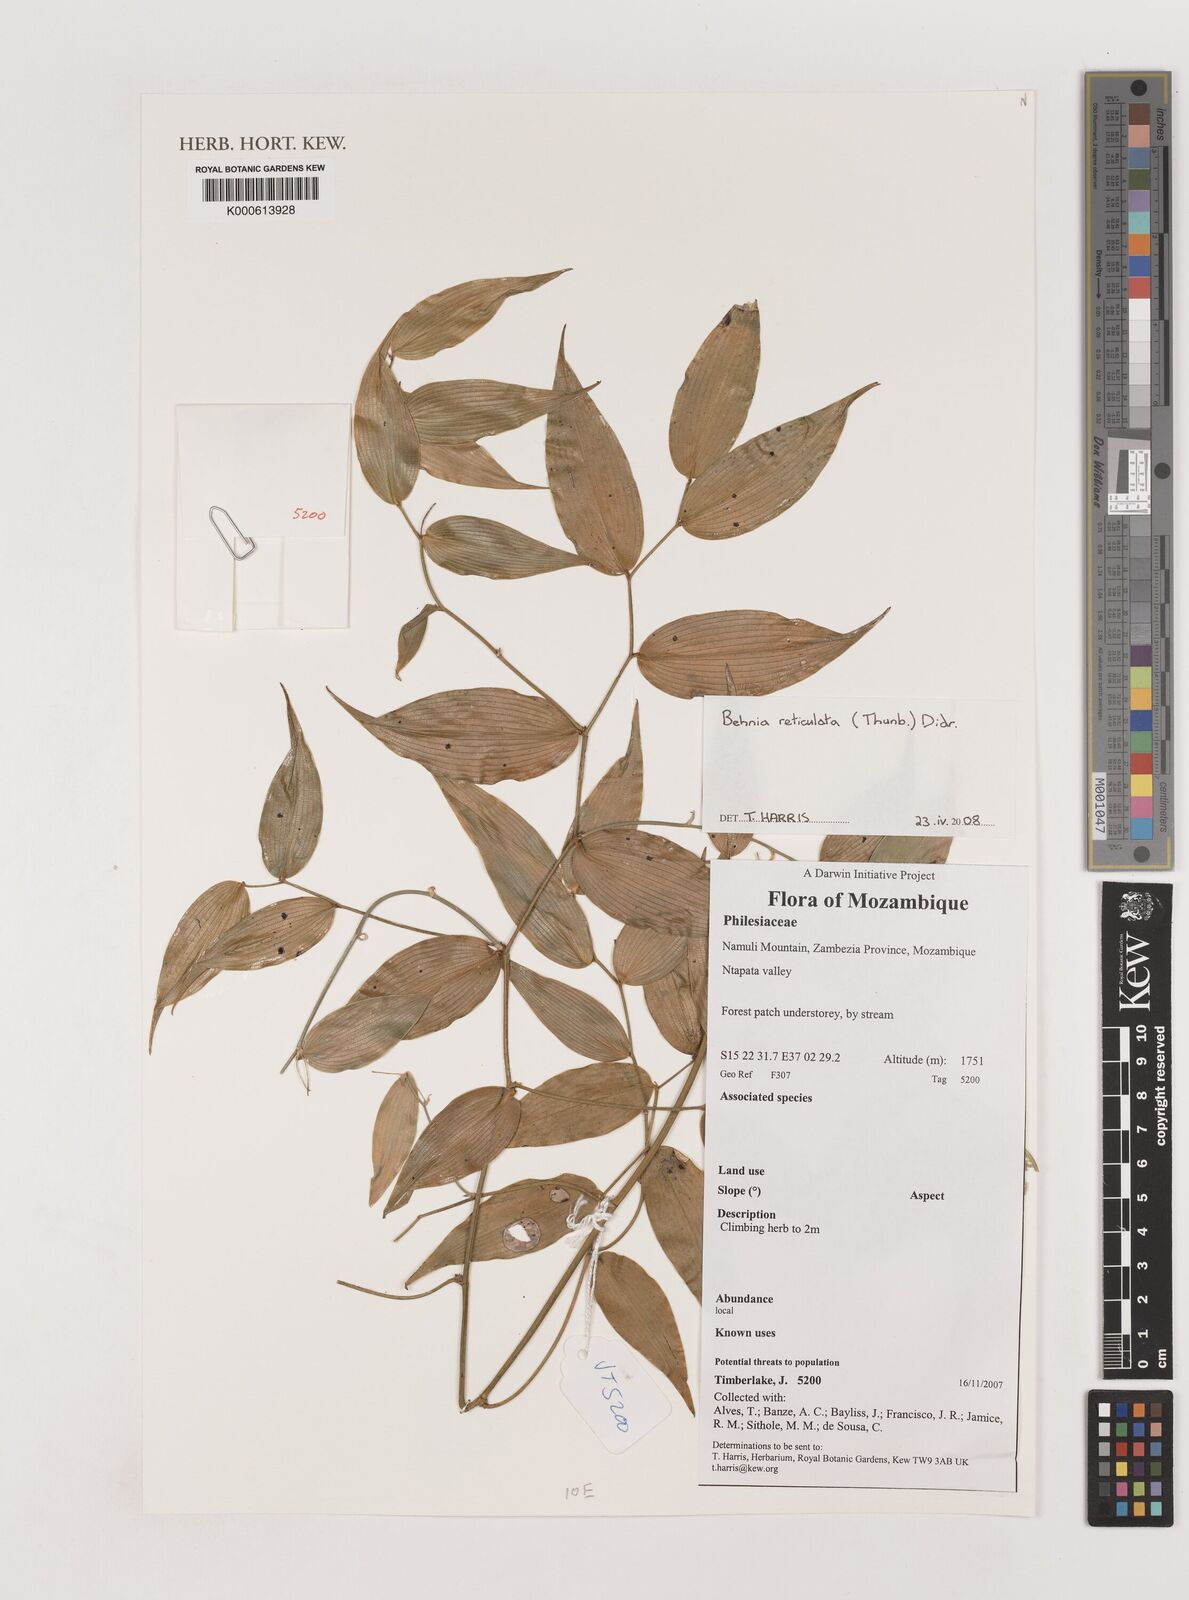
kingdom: Plantae
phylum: Tracheophyta
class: Liliopsida
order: Asparagales
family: Asparagaceae
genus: Behnia
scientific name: Behnia reticulata
